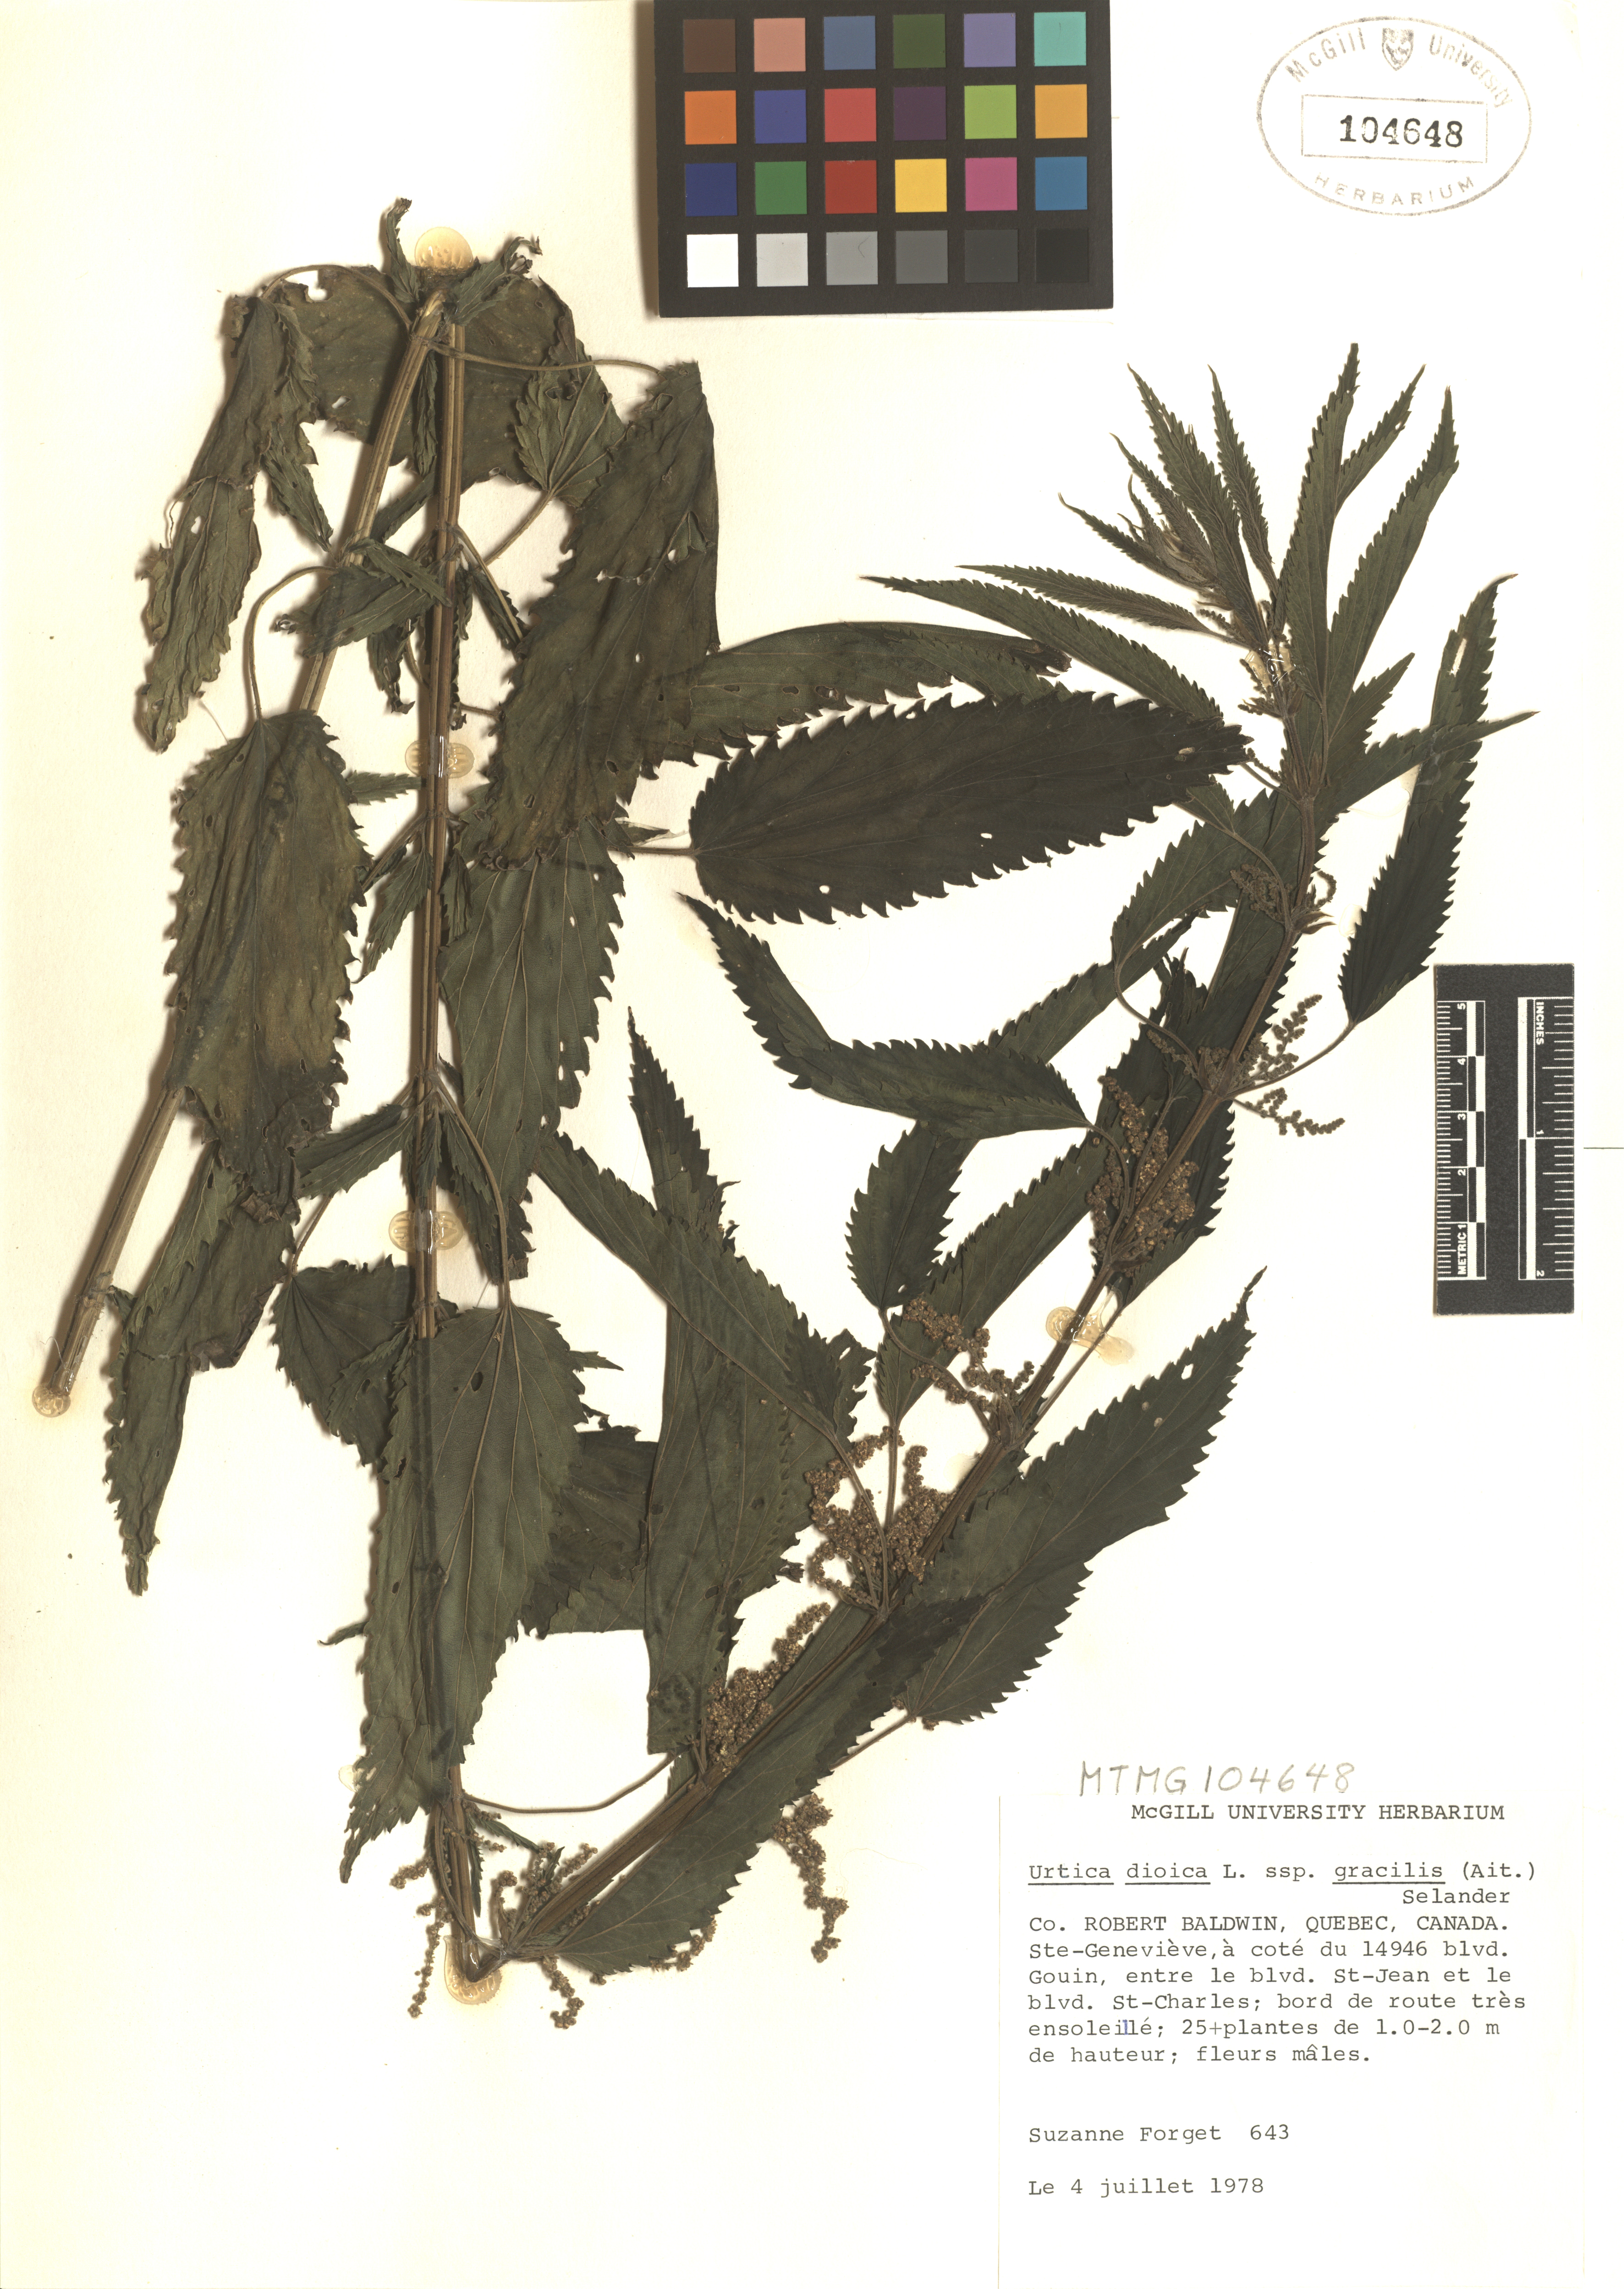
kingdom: Plantae
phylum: Tracheophyta
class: Magnoliopsida
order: Rosales
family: Urticaceae
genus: Urtica
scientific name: Urtica gracilis
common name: Slender stinging nettle
